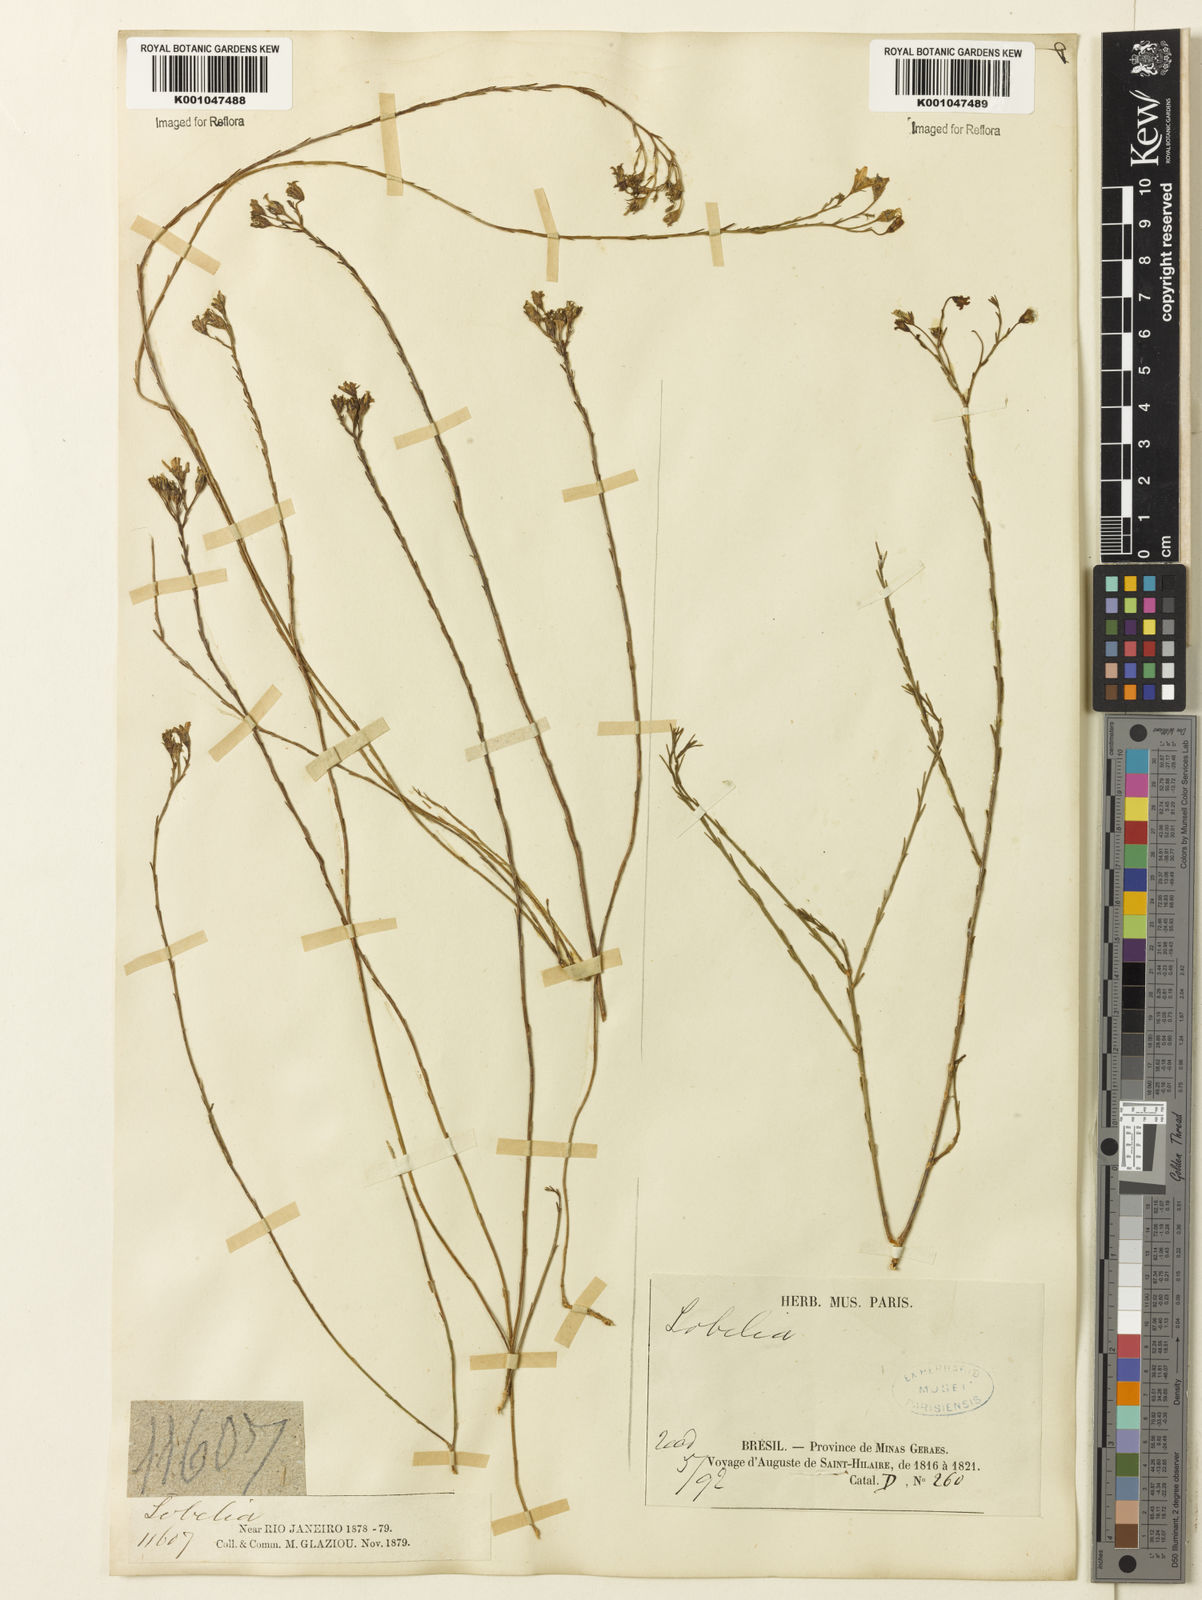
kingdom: Plantae
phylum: Tracheophyta
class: Magnoliopsida
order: Asterales
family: Campanulaceae
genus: Wahlenbergia
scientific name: Wahlenbergia brasiliensis
